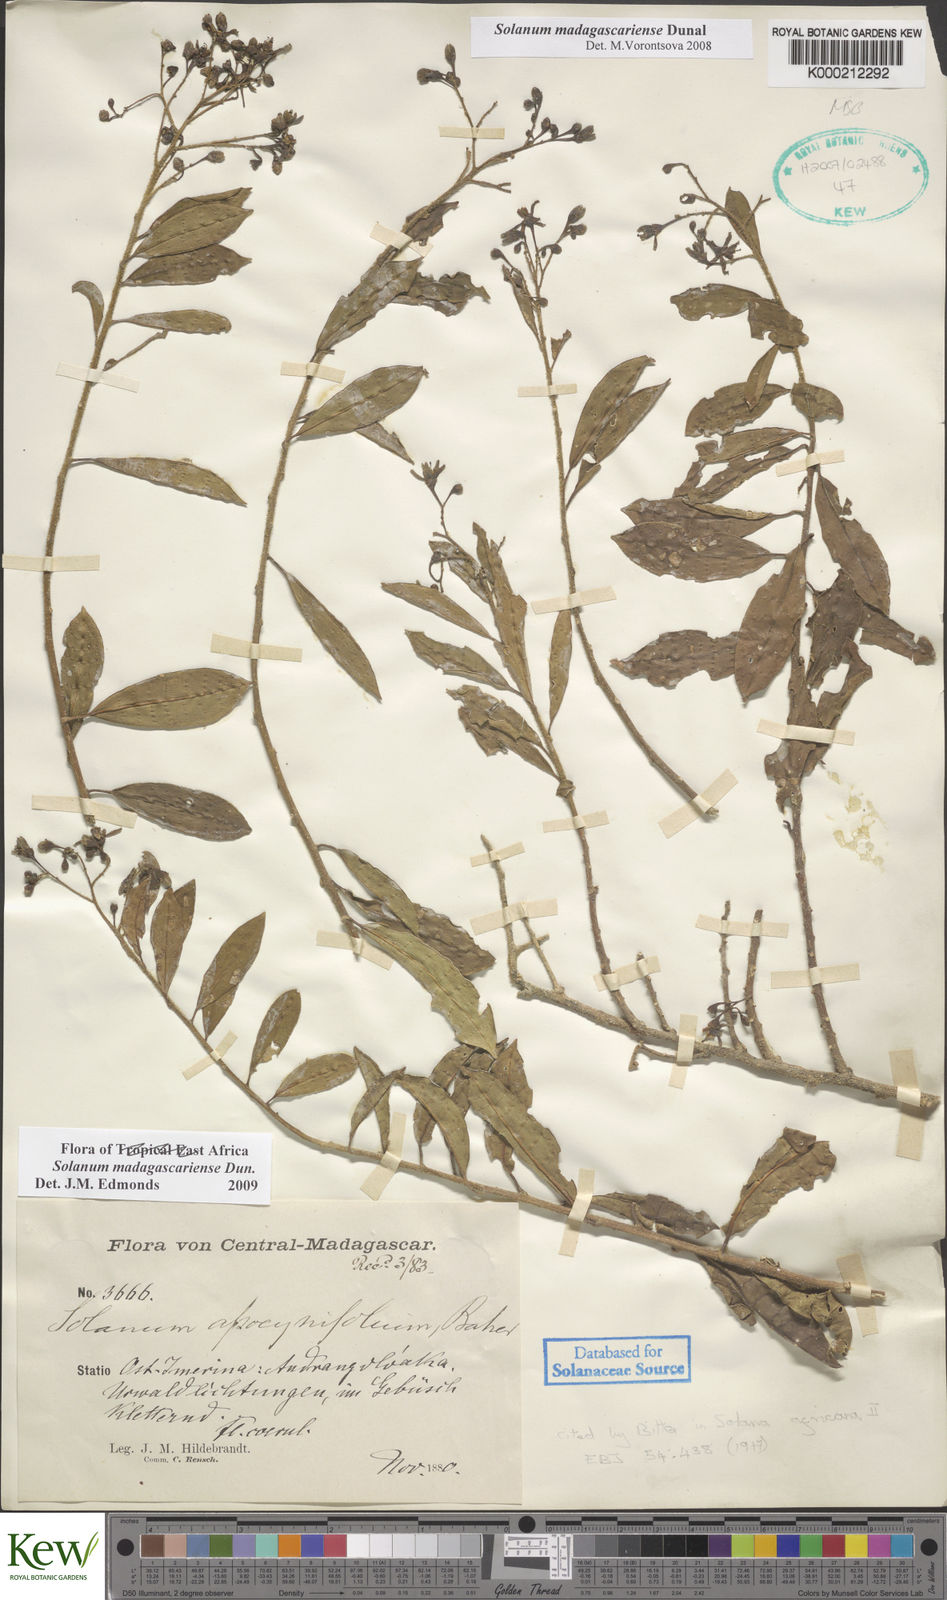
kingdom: Plantae
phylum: Tracheophyta
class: Magnoliopsida
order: Solanales
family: Solanaceae
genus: Solanum
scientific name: Solanum madagascariense
